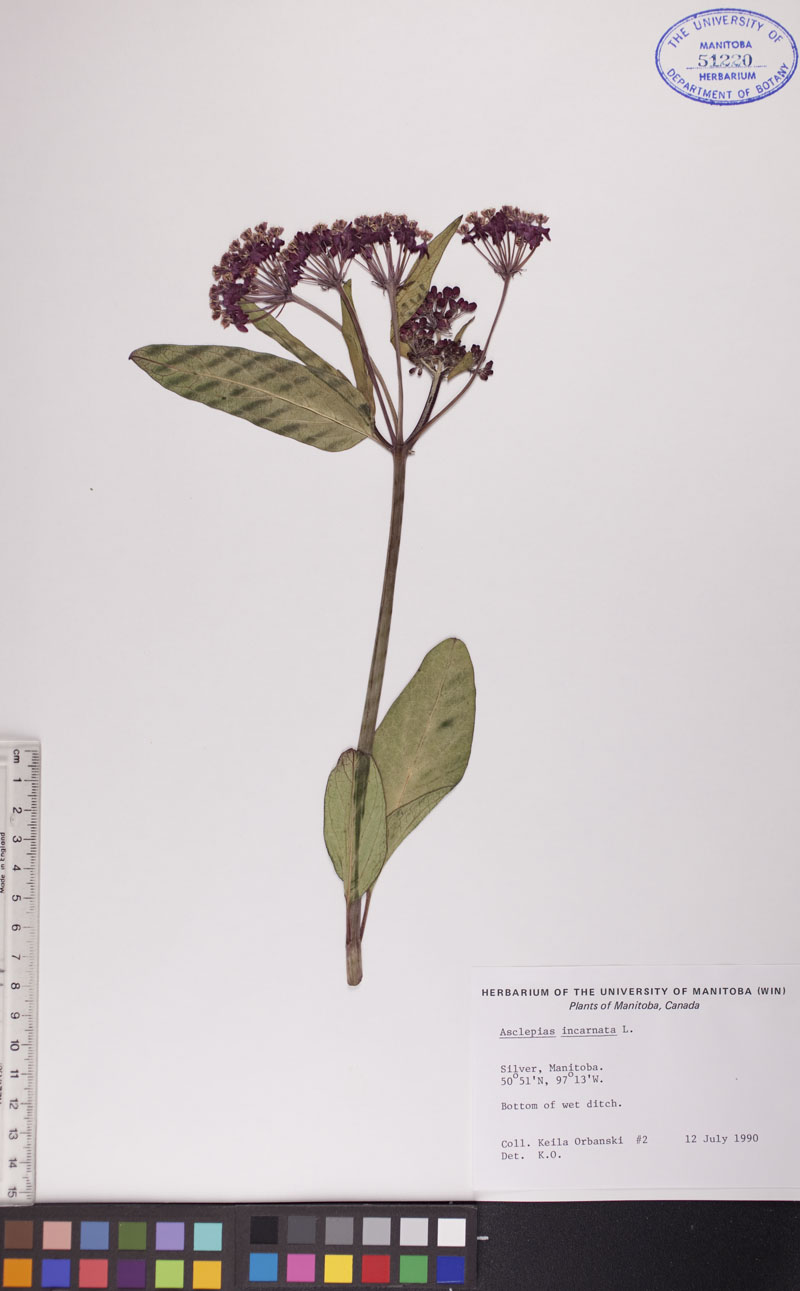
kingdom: Plantae
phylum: Tracheophyta
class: Magnoliopsida
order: Gentianales
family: Apocynaceae
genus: Asclepias
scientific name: Asclepias incarnata
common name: Swamp milkweed
